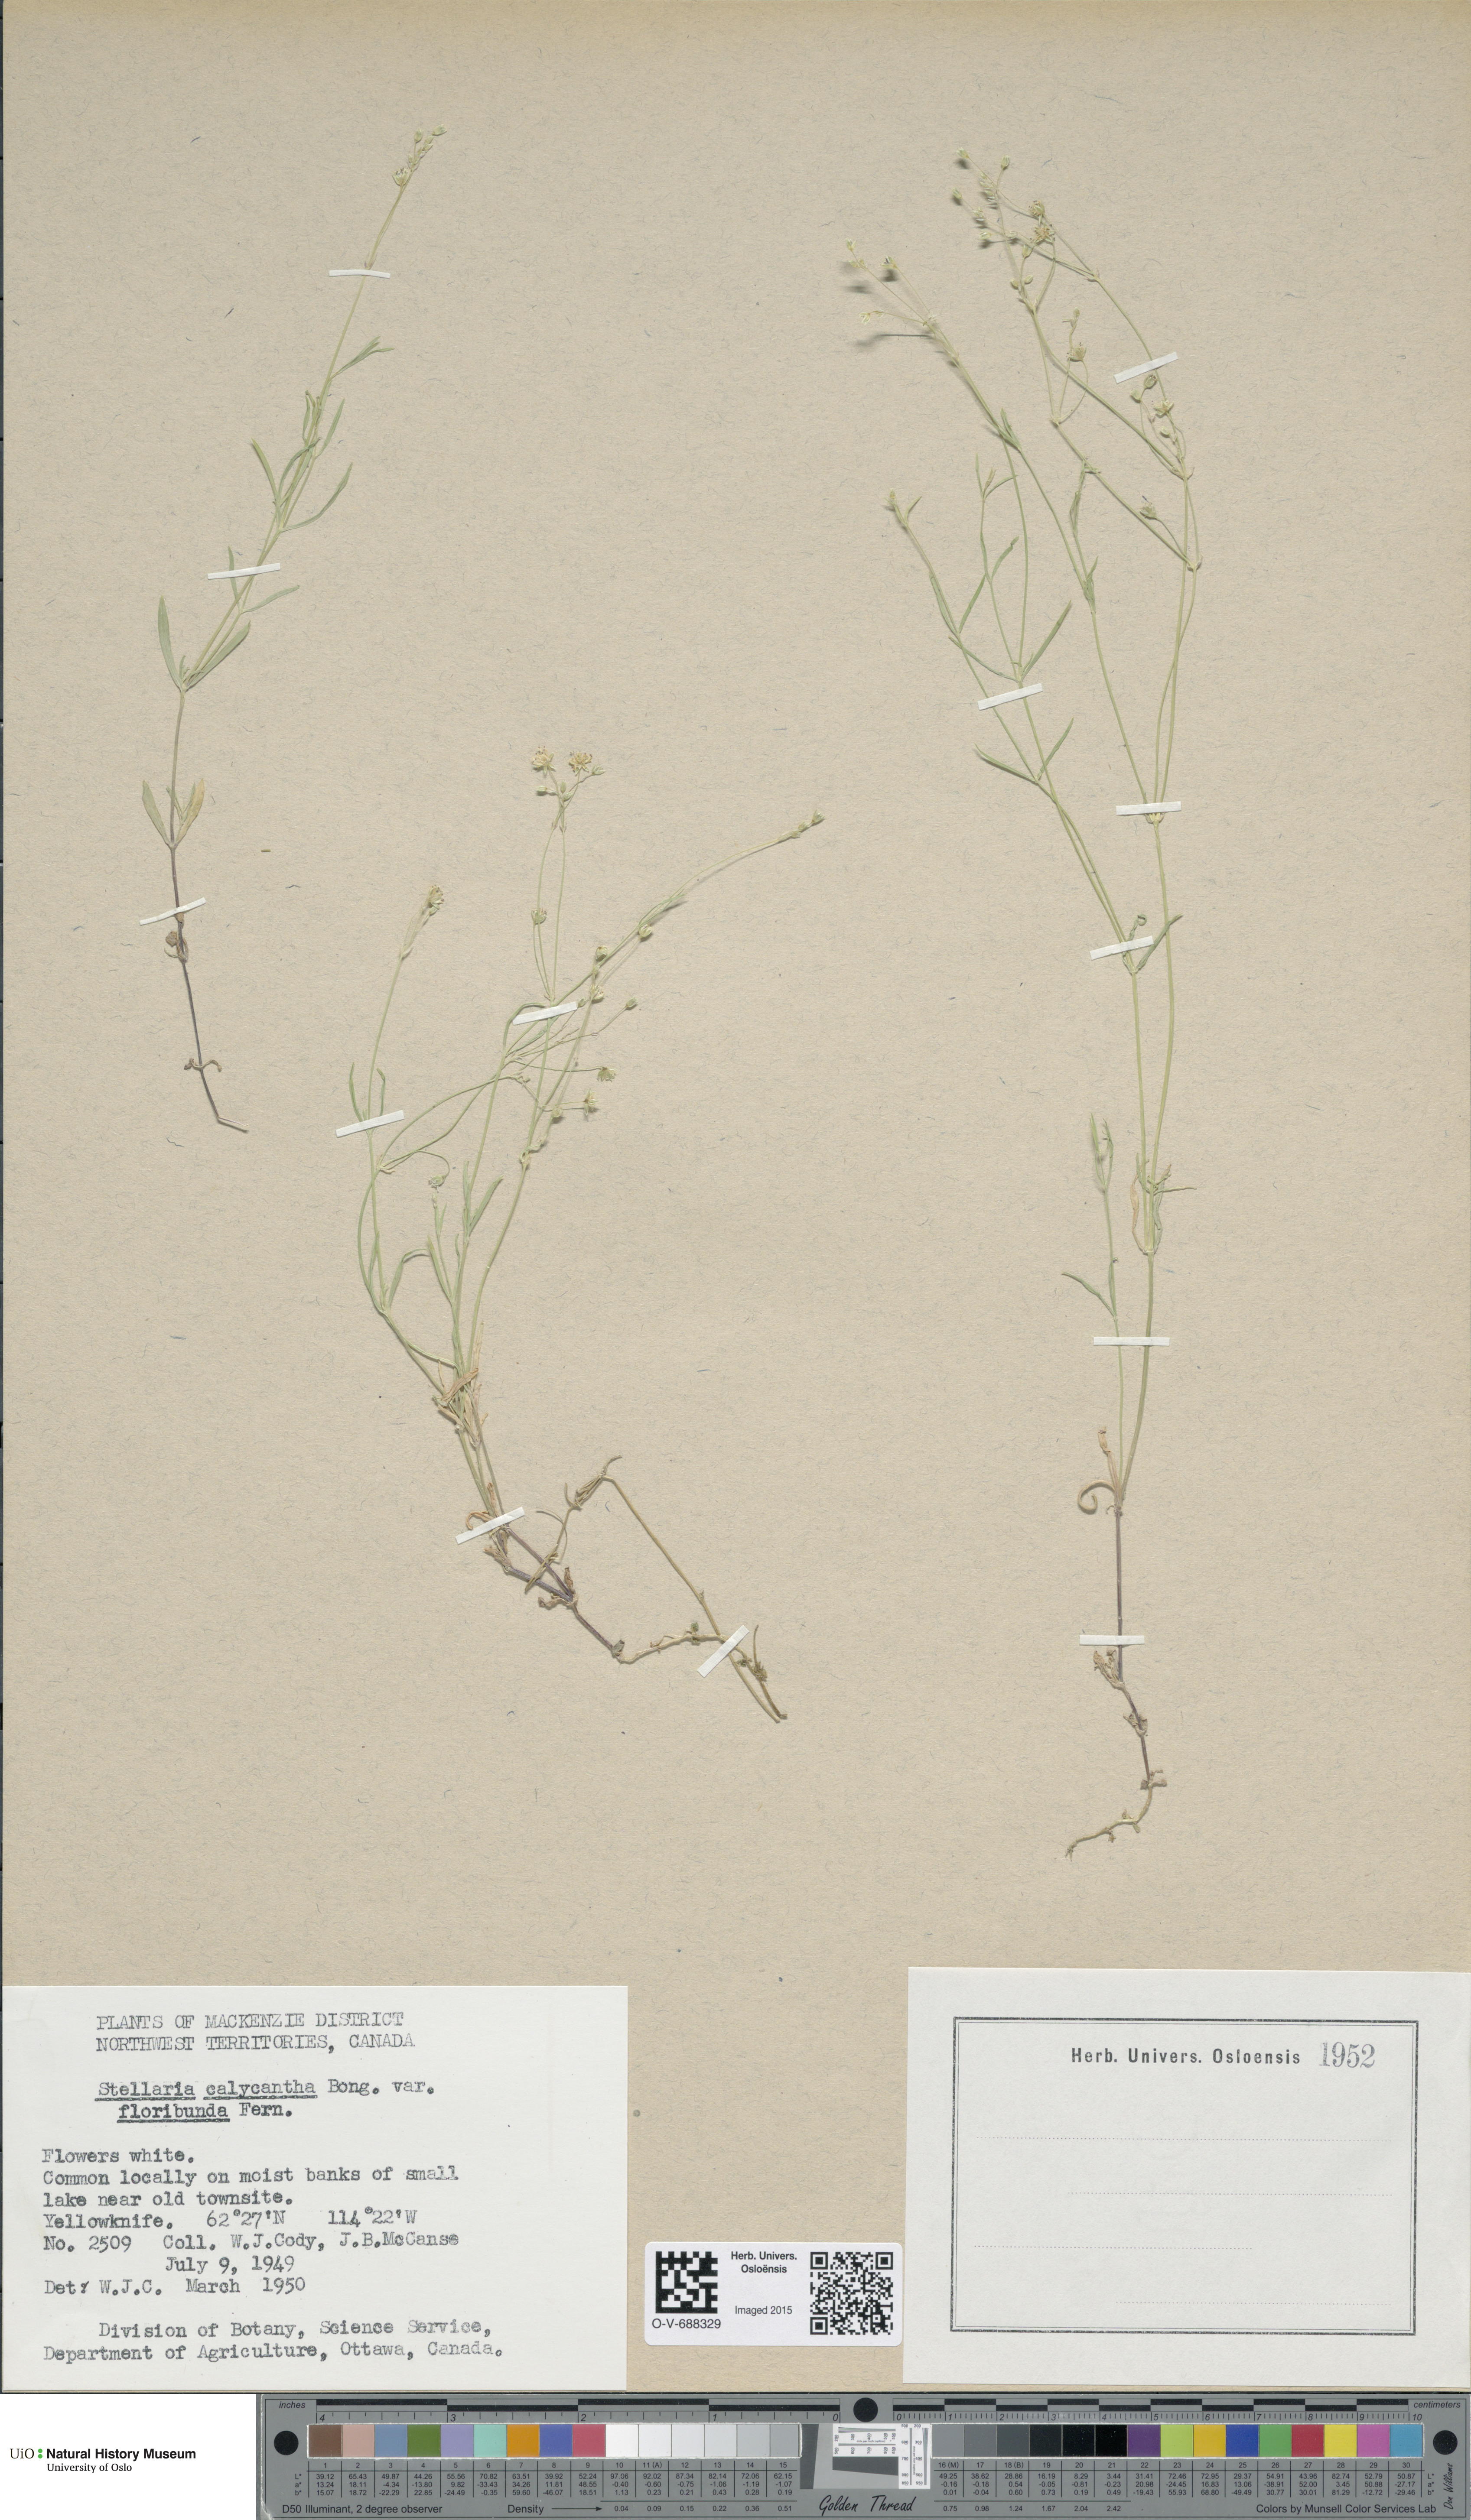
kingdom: Plantae
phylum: Tracheophyta
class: Magnoliopsida
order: Caryophyllales
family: Caryophyllaceae
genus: Stellaria
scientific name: Stellaria borealis
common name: Boreal starwort
